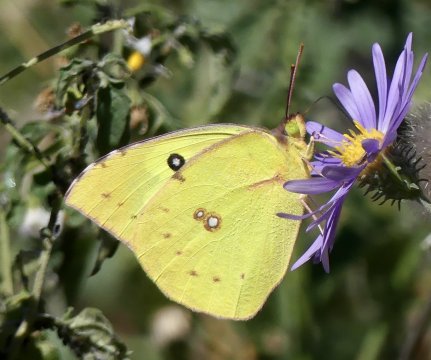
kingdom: Animalia
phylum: Arthropoda
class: Insecta
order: Lepidoptera
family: Pieridae
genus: Zerene
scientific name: Zerene cesonia
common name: Southern Dogface
